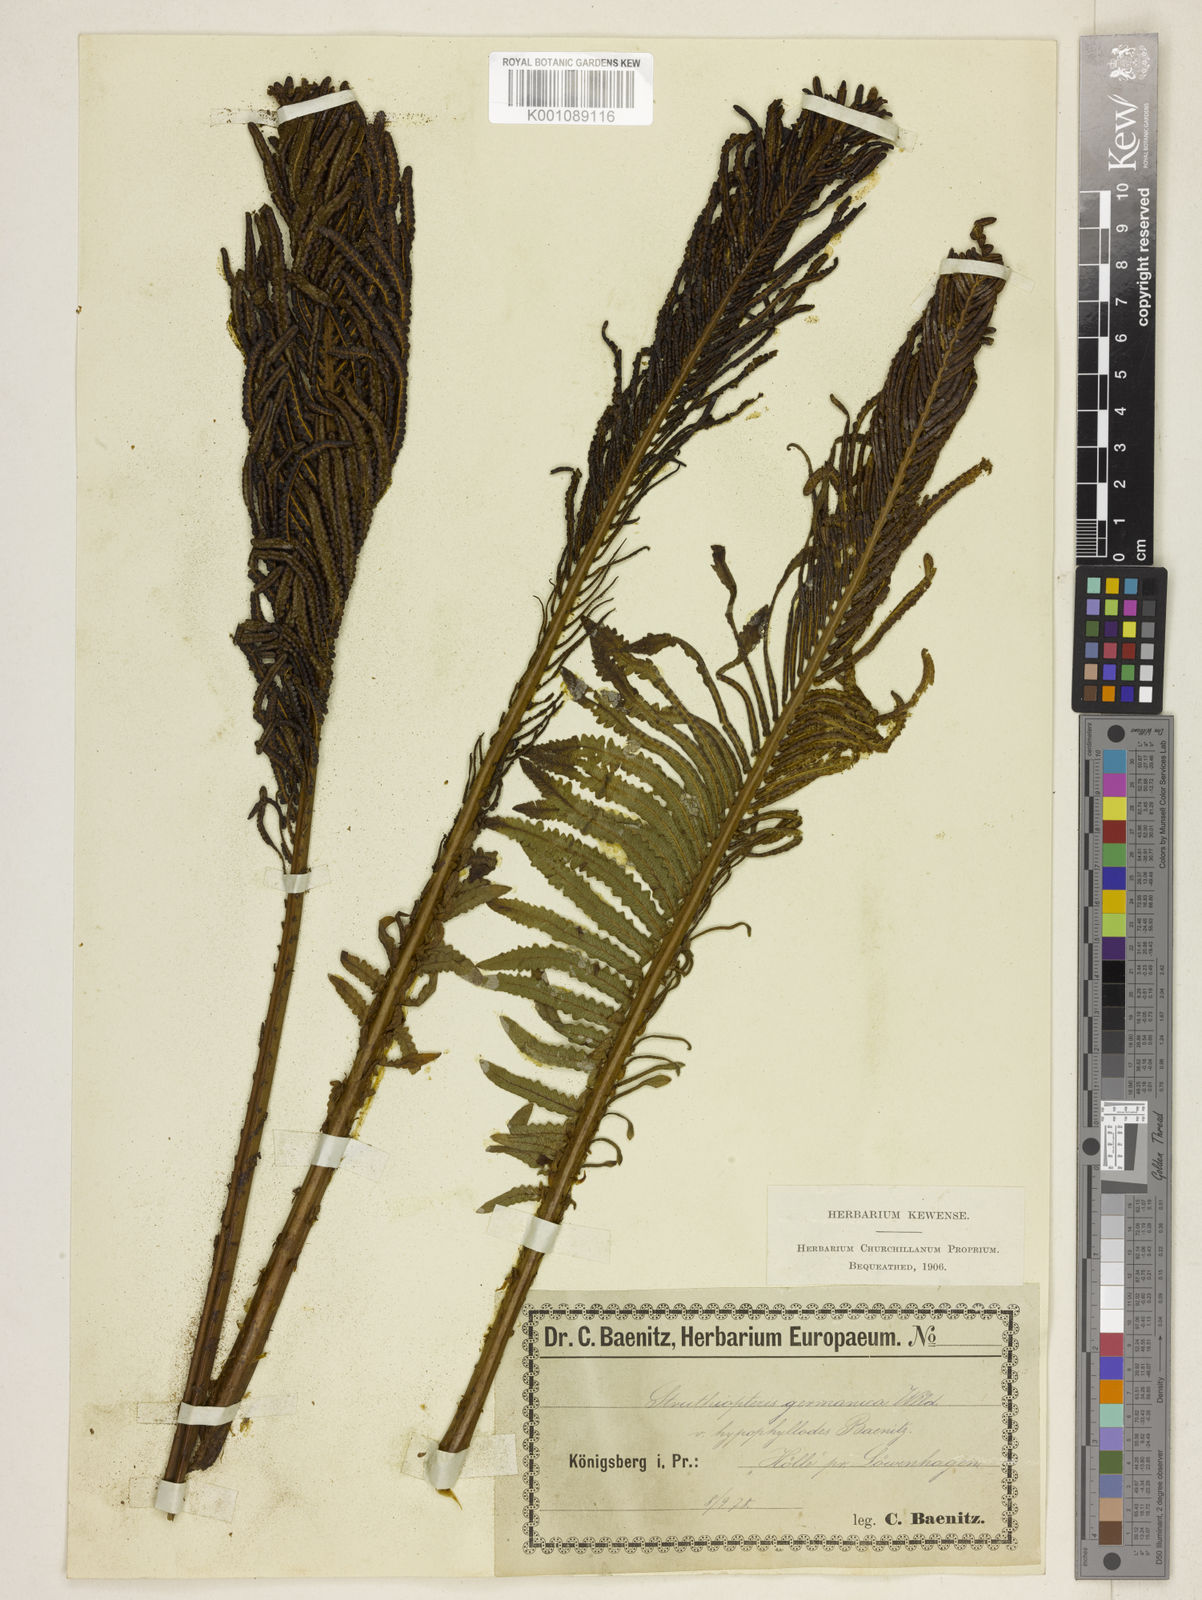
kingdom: Plantae
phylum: Tracheophyta
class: Polypodiopsida
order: Polypodiales
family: Onocleaceae
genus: Matteuccia
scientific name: Matteuccia struthiopteris
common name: Ostrich fern
